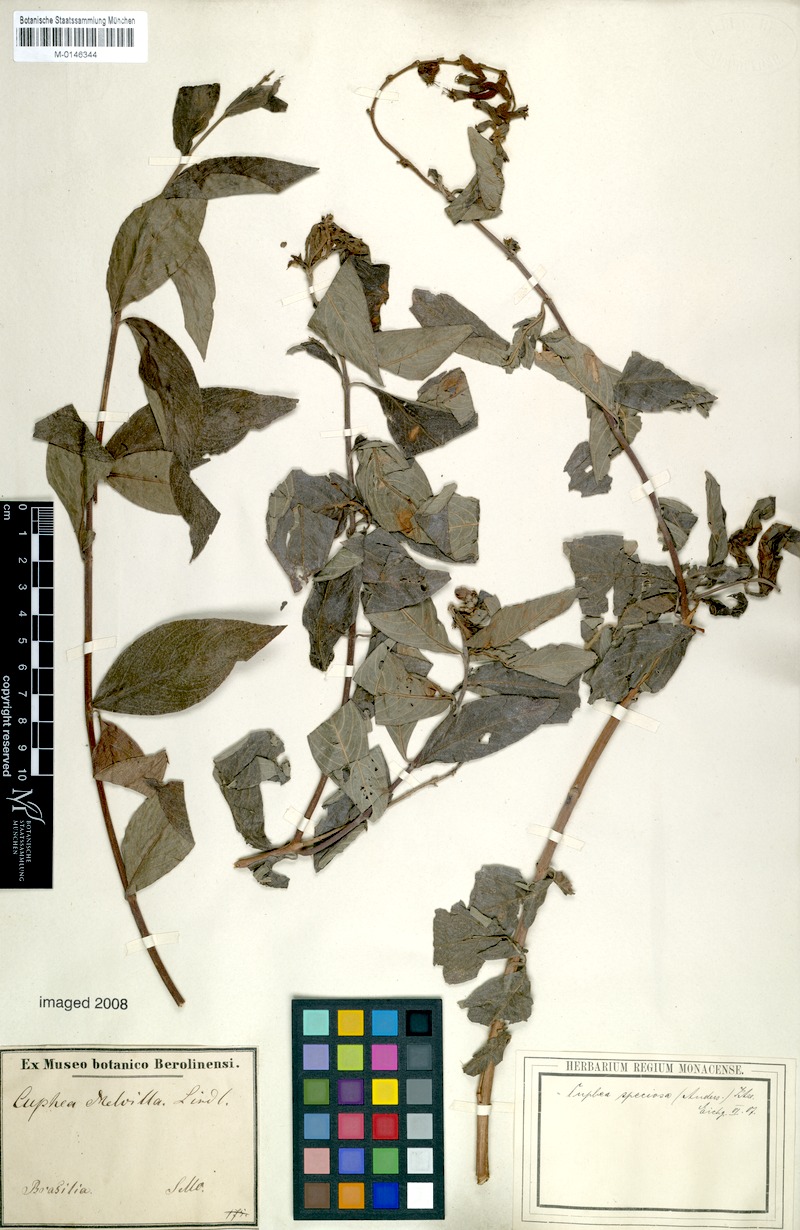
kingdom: Plantae
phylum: Tracheophyta
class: Magnoliopsida
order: Myrtales
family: Lythraceae
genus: Cuphea
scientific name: Cuphea melvilla
